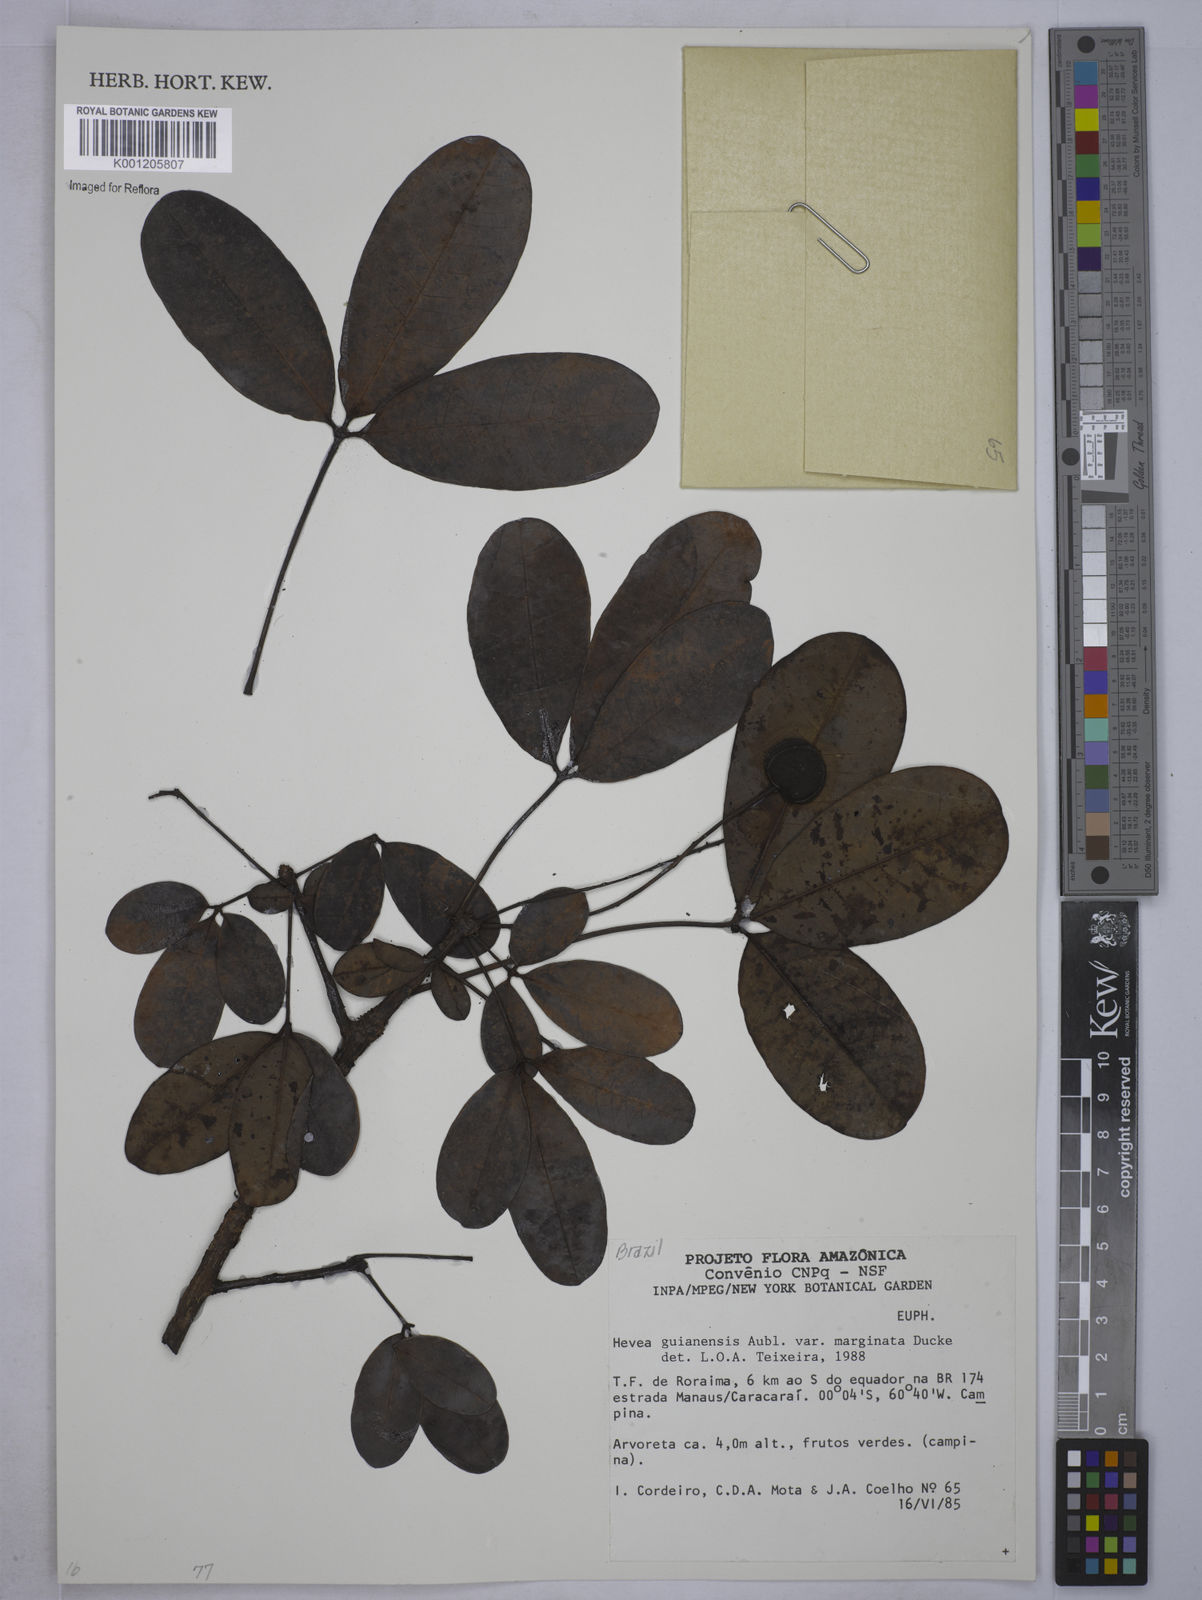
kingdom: Plantae
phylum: Tracheophyta
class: Magnoliopsida
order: Malpighiales
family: Euphorbiaceae
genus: Hevea
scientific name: Hevea guianensis
